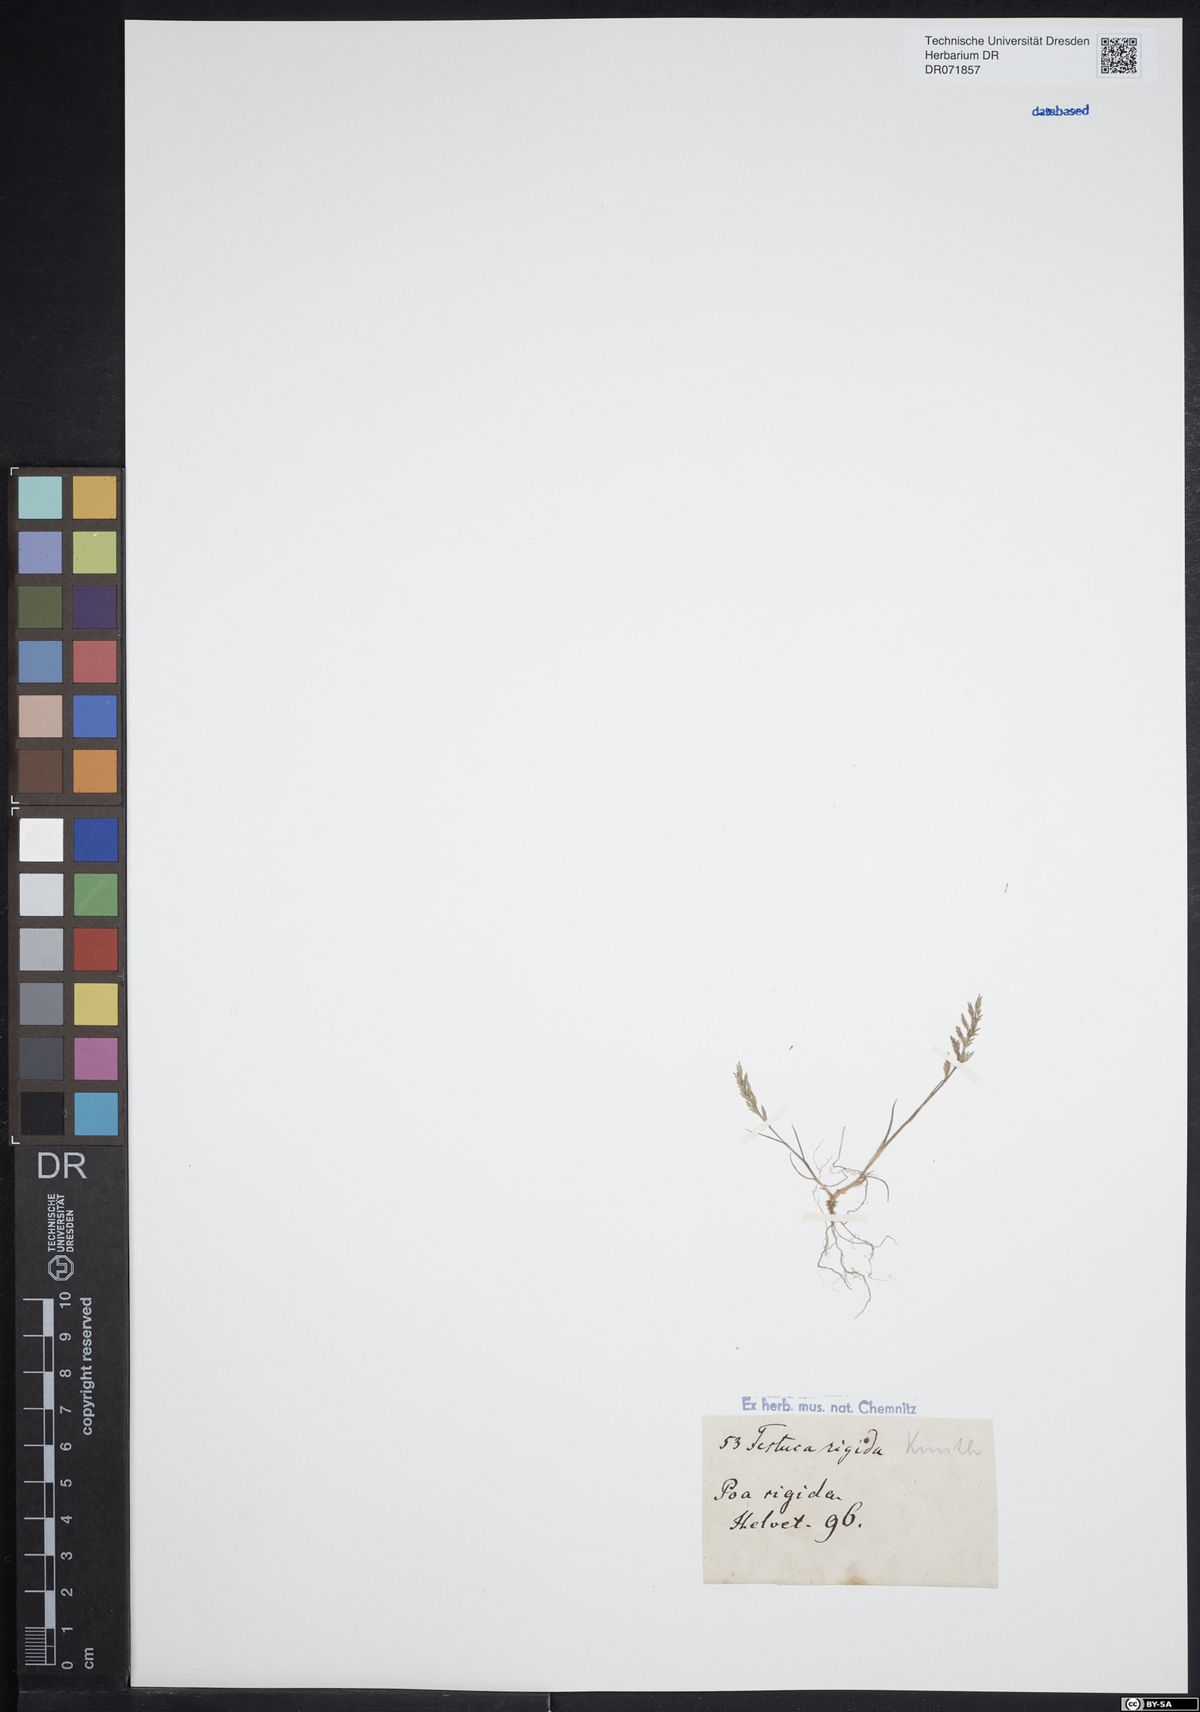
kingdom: Plantae
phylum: Tracheophyta
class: Liliopsida
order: Poales
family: Poaceae
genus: Catapodium
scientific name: Catapodium rigidum
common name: Fern-grass
